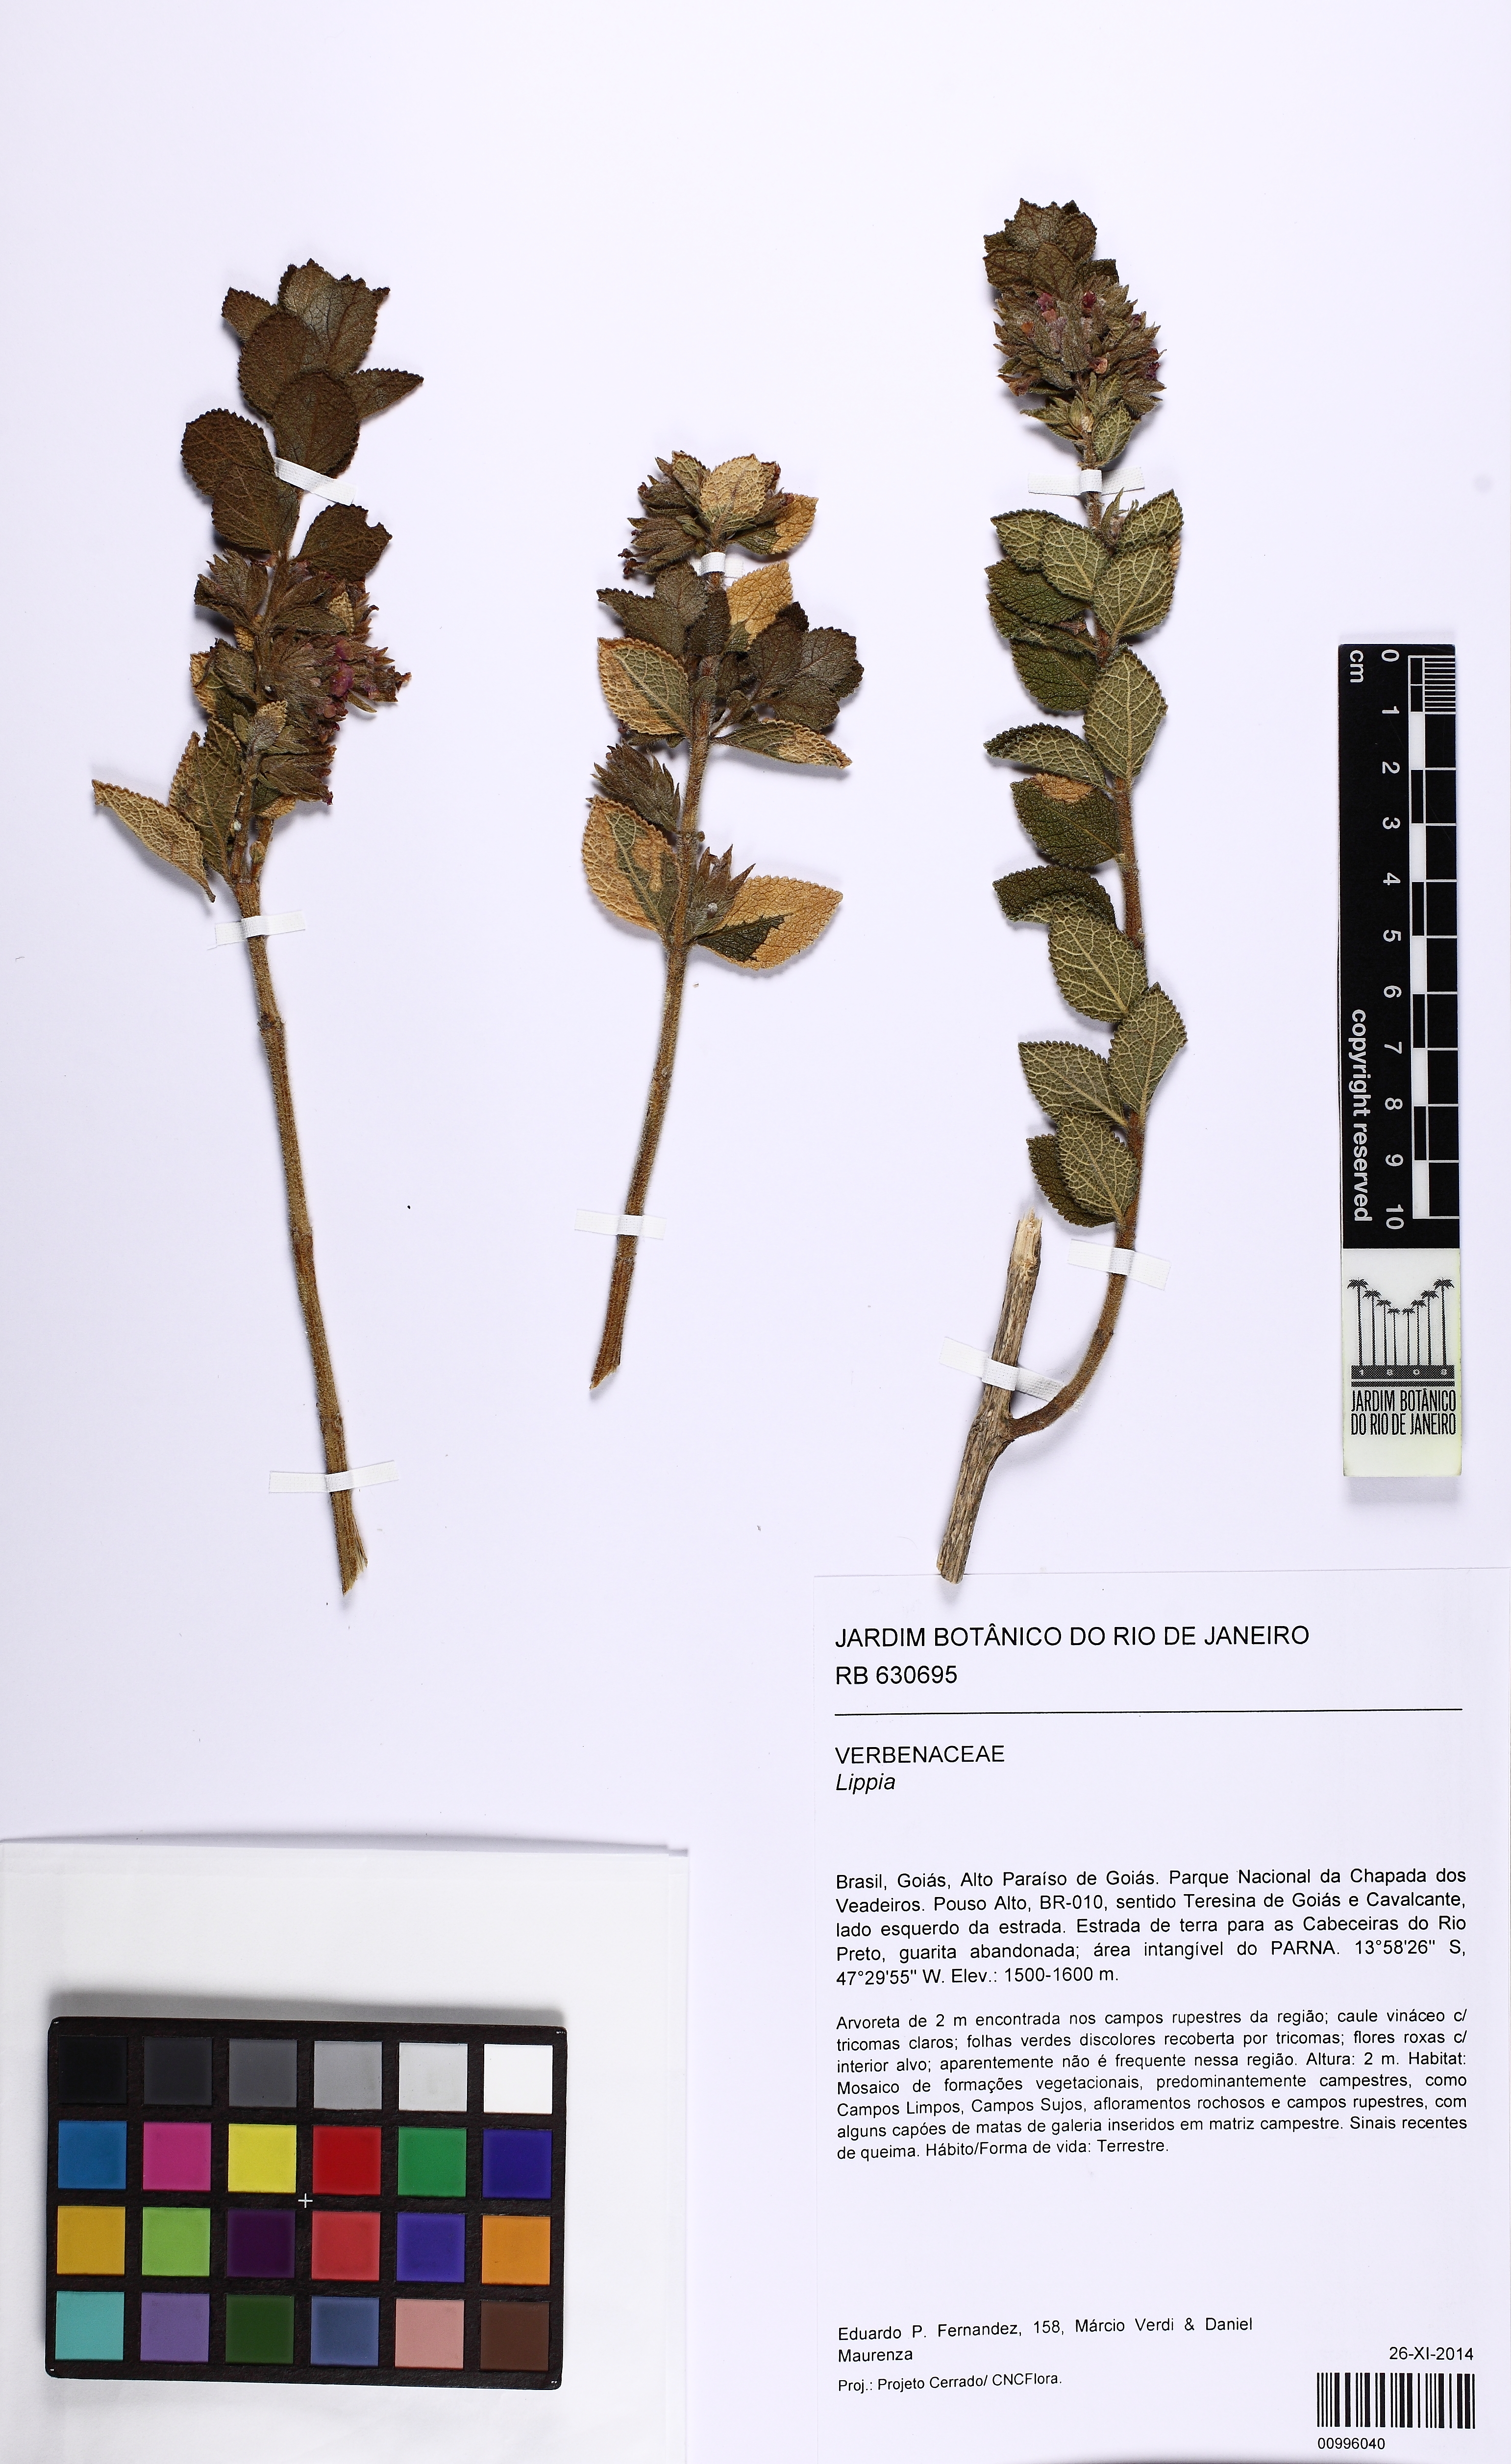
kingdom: Plantae
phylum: Tracheophyta
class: Magnoliopsida
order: Lamiales
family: Verbenaceae
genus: Lippia
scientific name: Lippia
